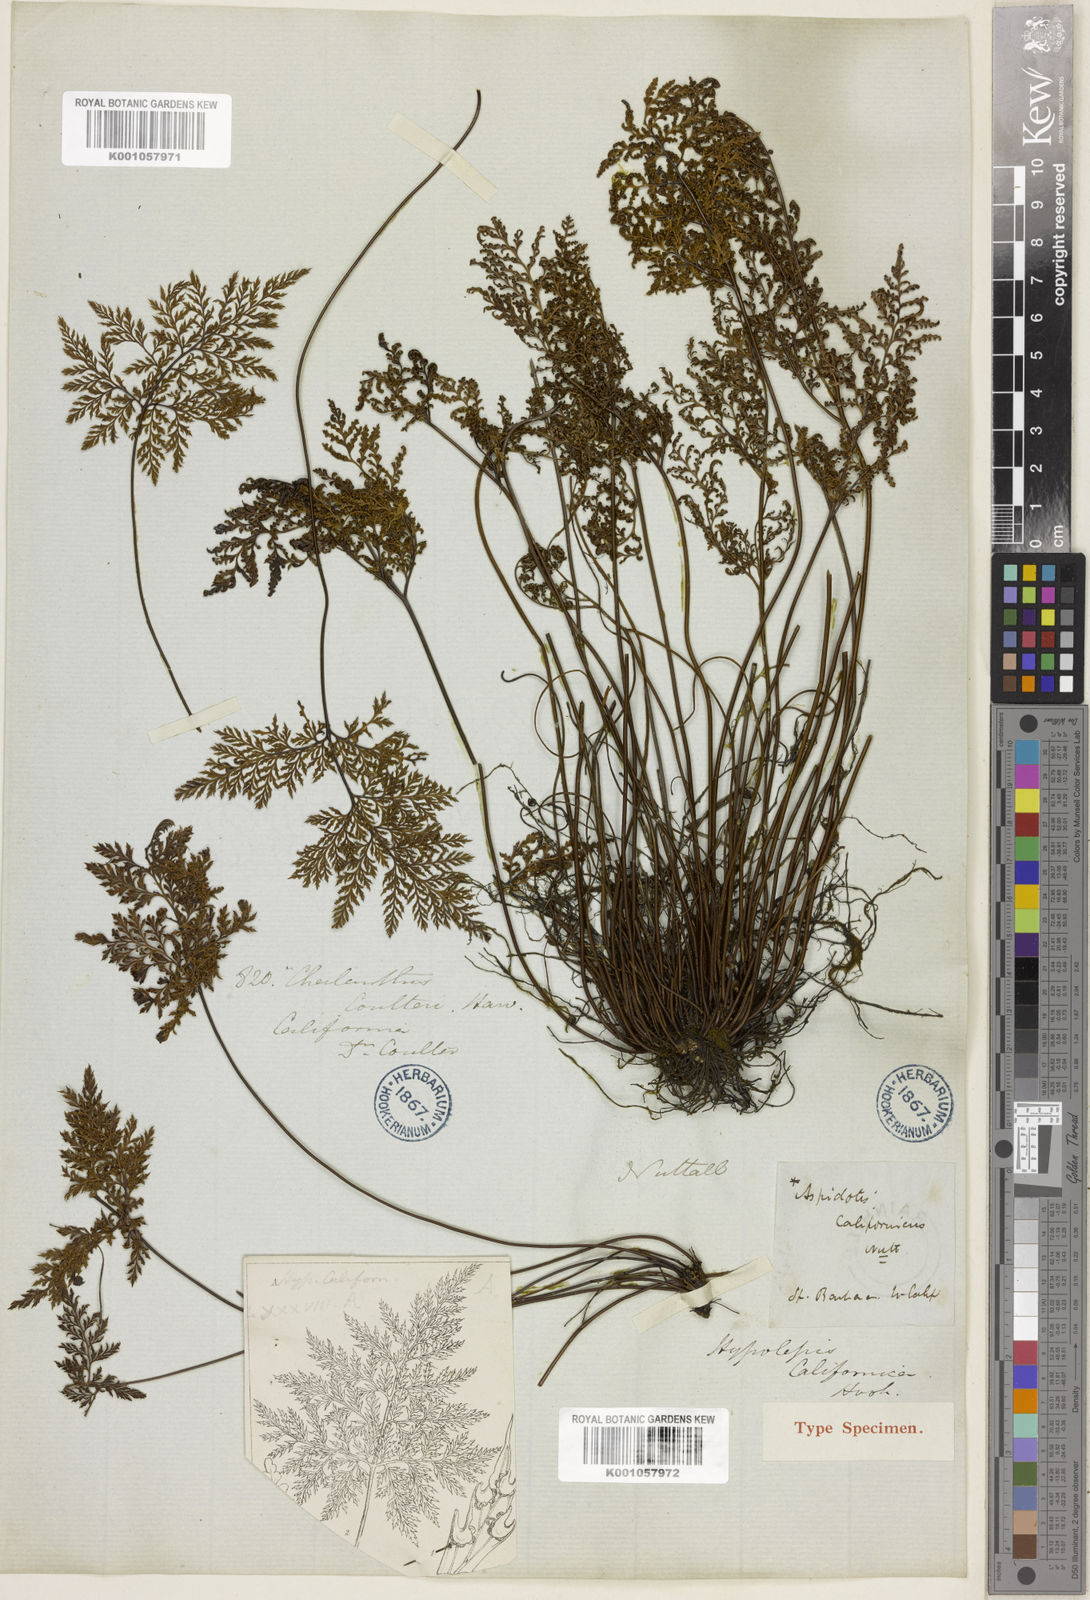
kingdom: Plantae
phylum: Tracheophyta
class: Polypodiopsida
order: Polypodiales
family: Pteridaceae
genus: Aspidotis
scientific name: Aspidotis californica
